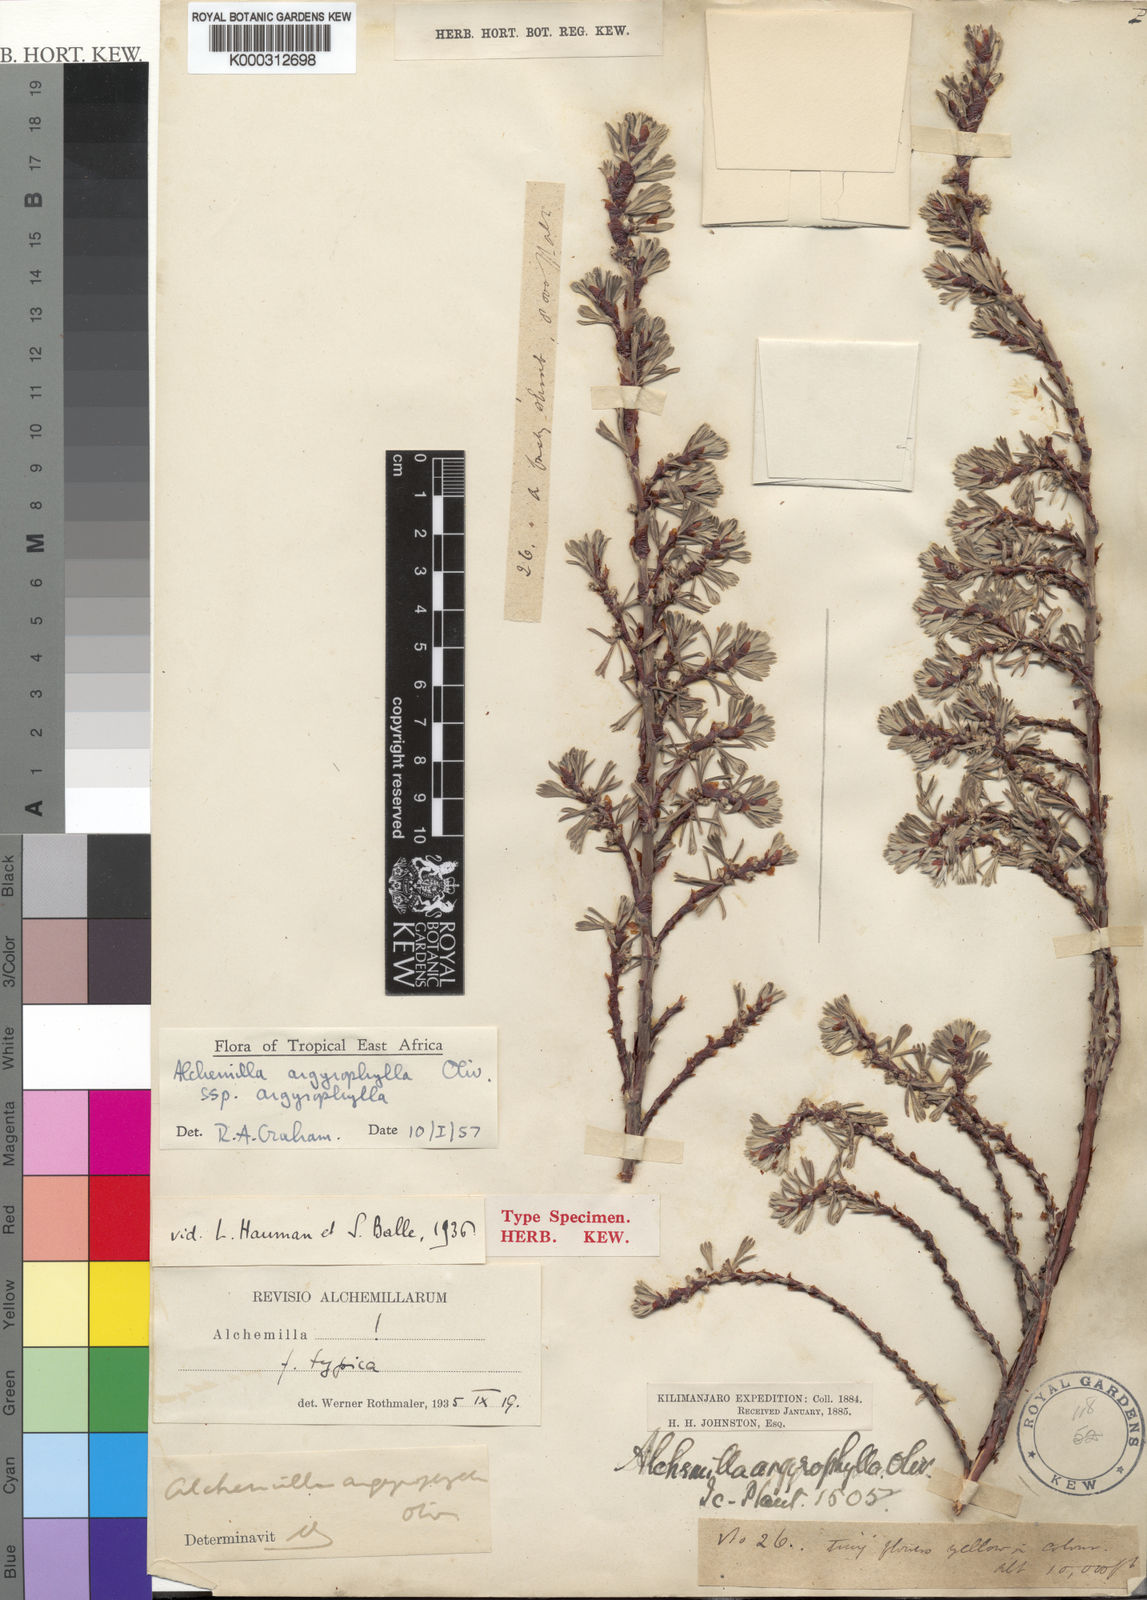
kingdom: Plantae
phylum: Tracheophyta
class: Magnoliopsida
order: Rosales
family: Rosaceae
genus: Alchemilla
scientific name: Alchemilla argyrophylla
